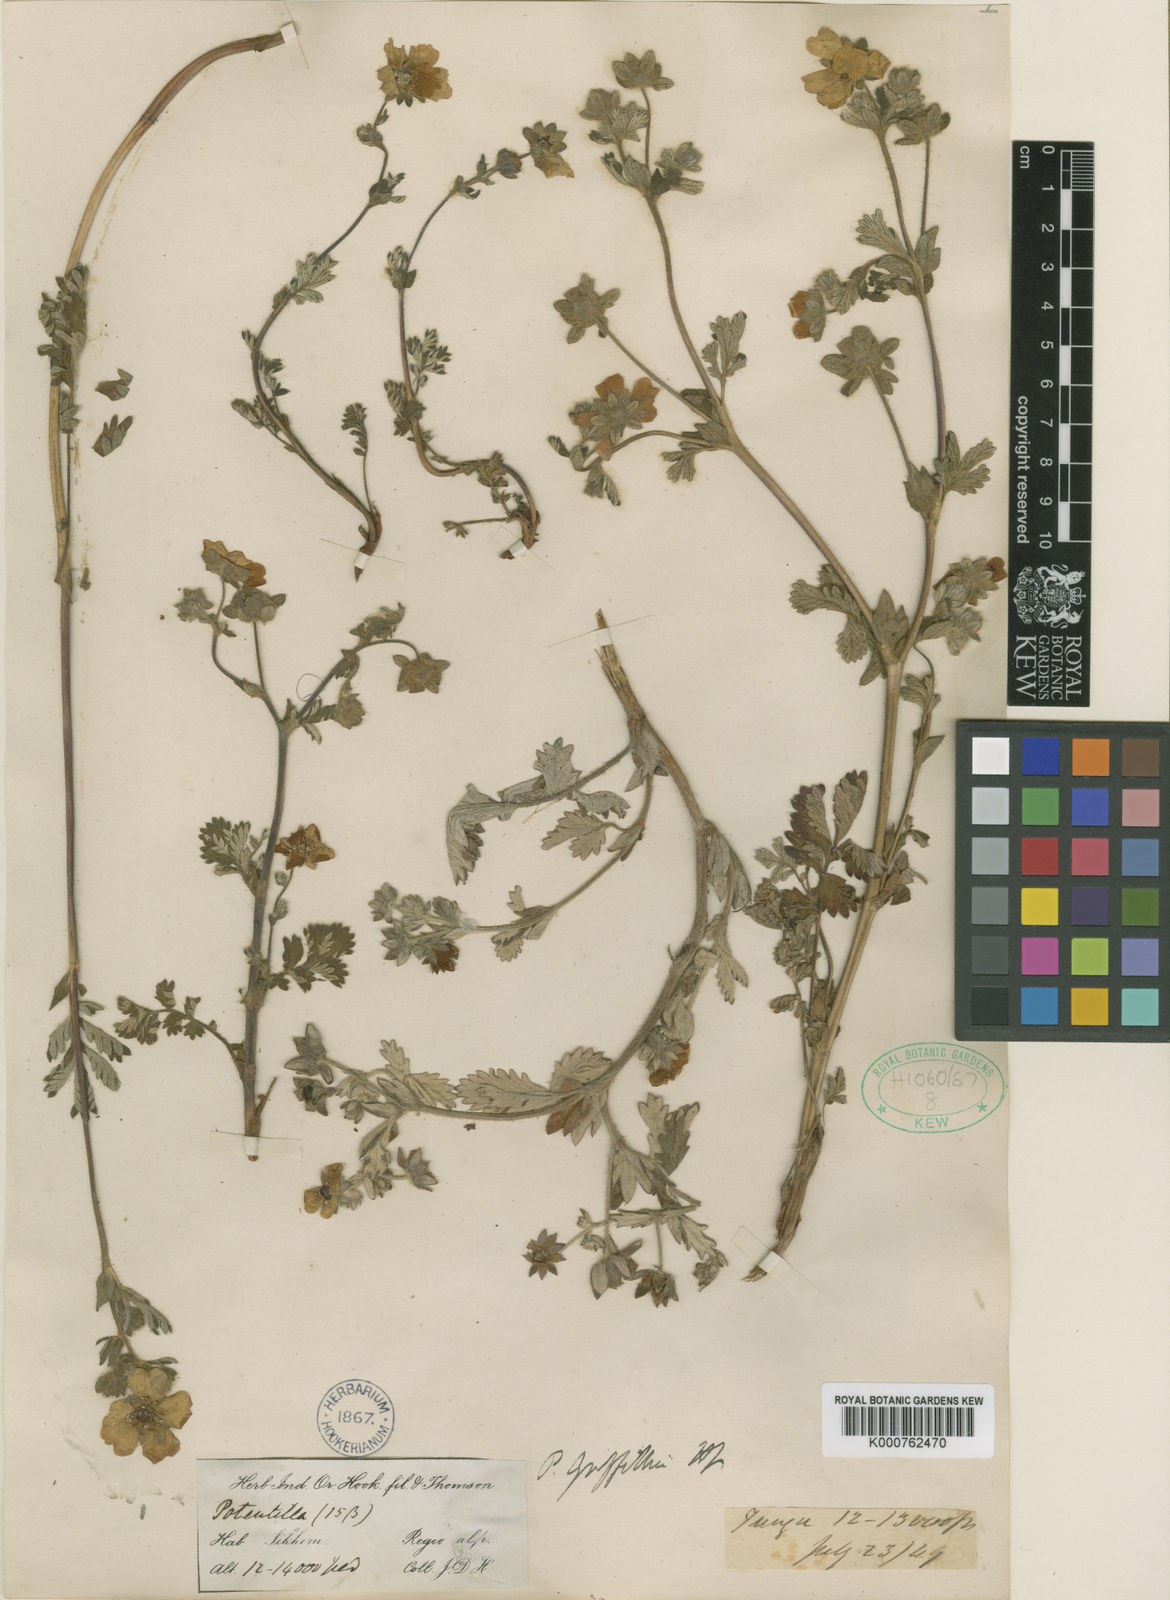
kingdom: Plantae
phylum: Tracheophyta
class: Magnoliopsida
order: Rosales
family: Rosaceae
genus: Potentilla
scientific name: Potentilla griffithii
